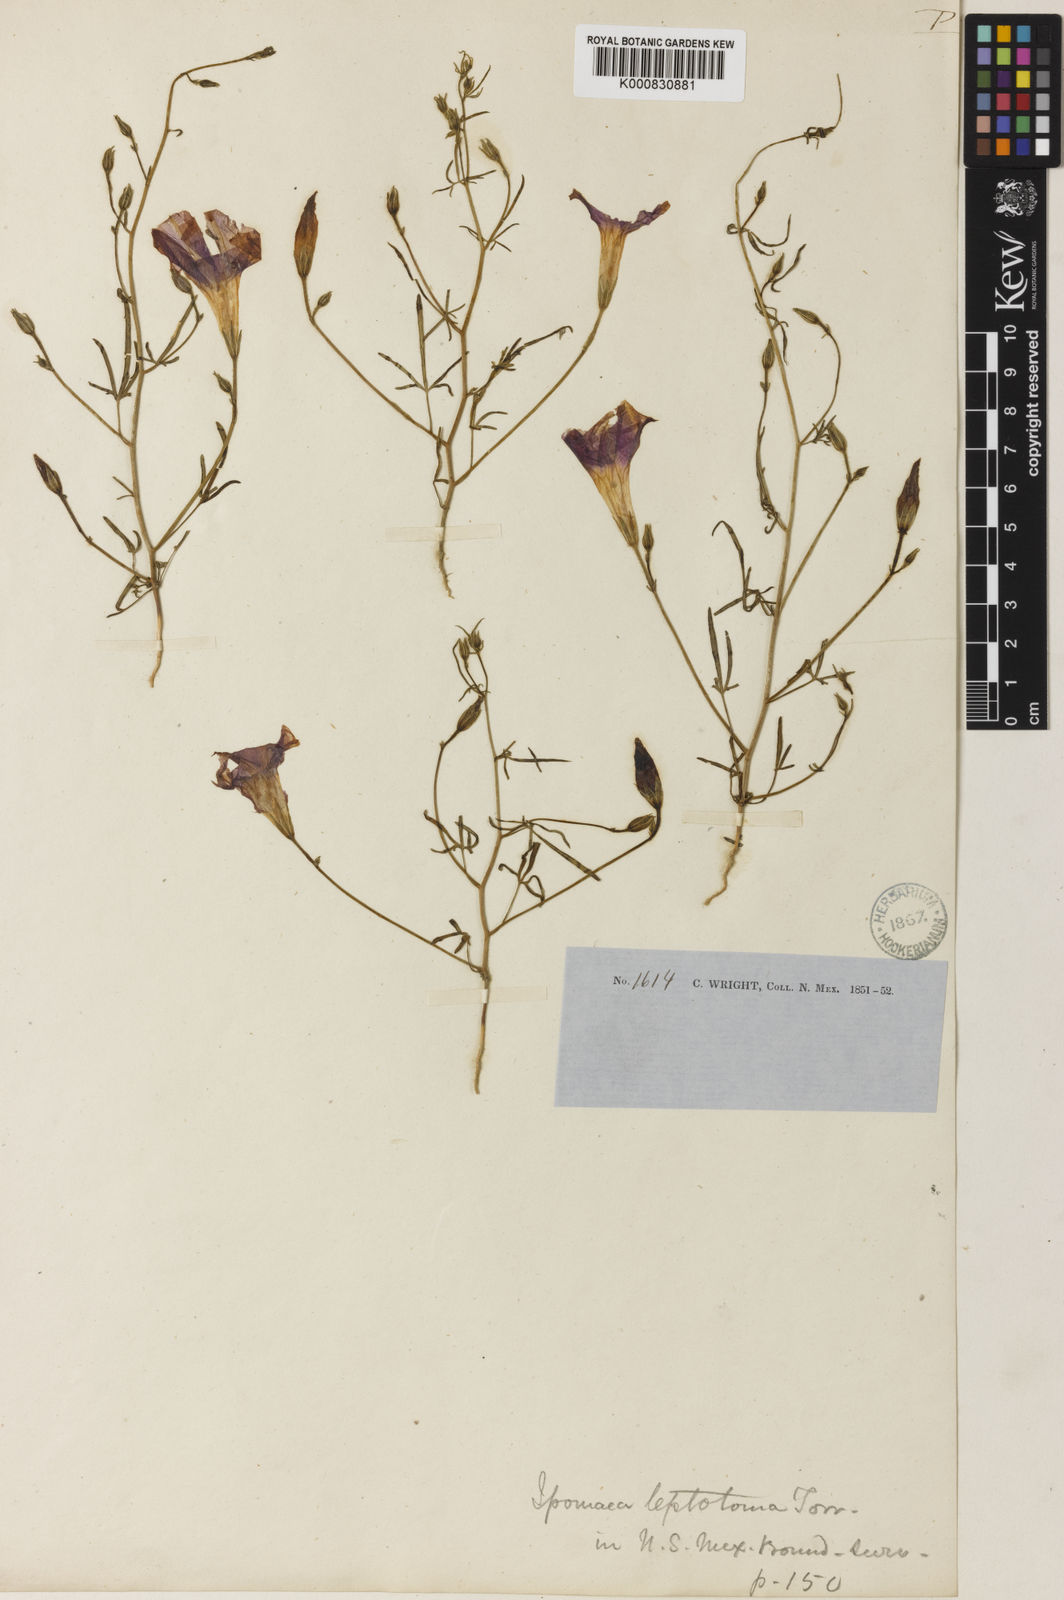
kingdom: Plantae
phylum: Tracheophyta
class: Magnoliopsida
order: Solanales
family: Convolvulaceae
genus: Ipomoea
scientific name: Ipomoea ternifolia
